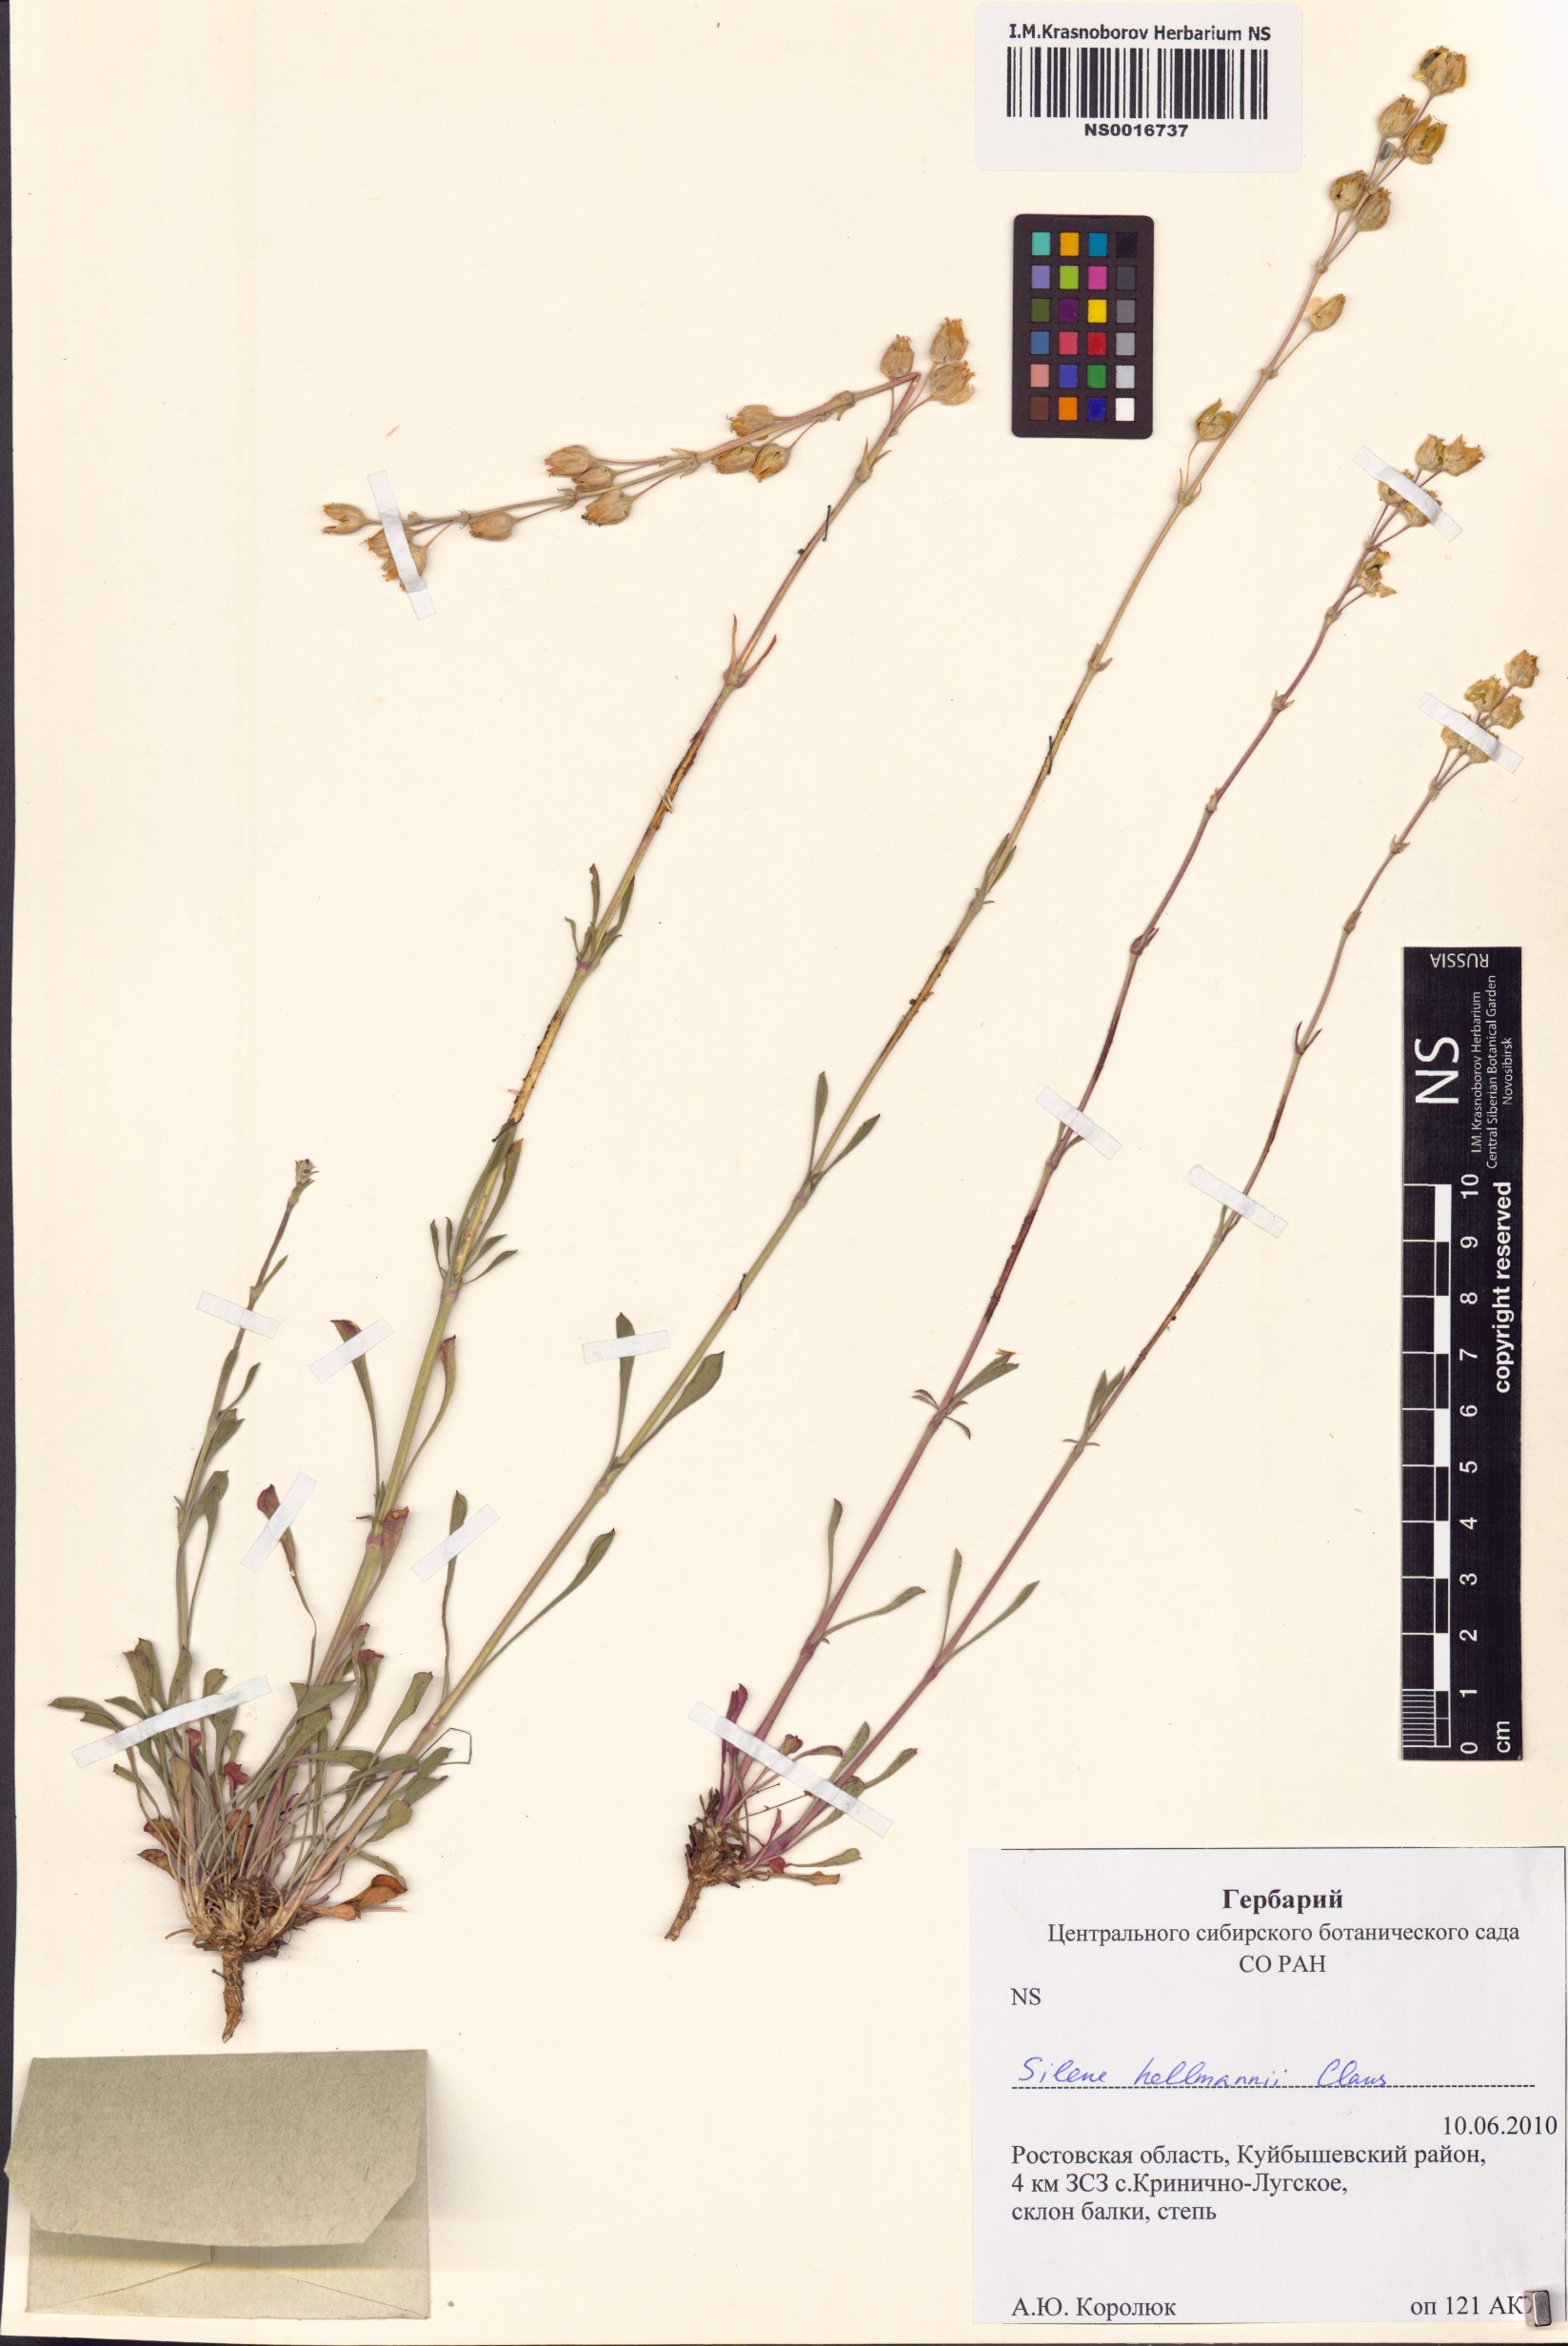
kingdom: Plantae
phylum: Tracheophyta
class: Magnoliopsida
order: Caryophyllales
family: Caryophyllaceae
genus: Silene
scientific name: Silene hellmannii
